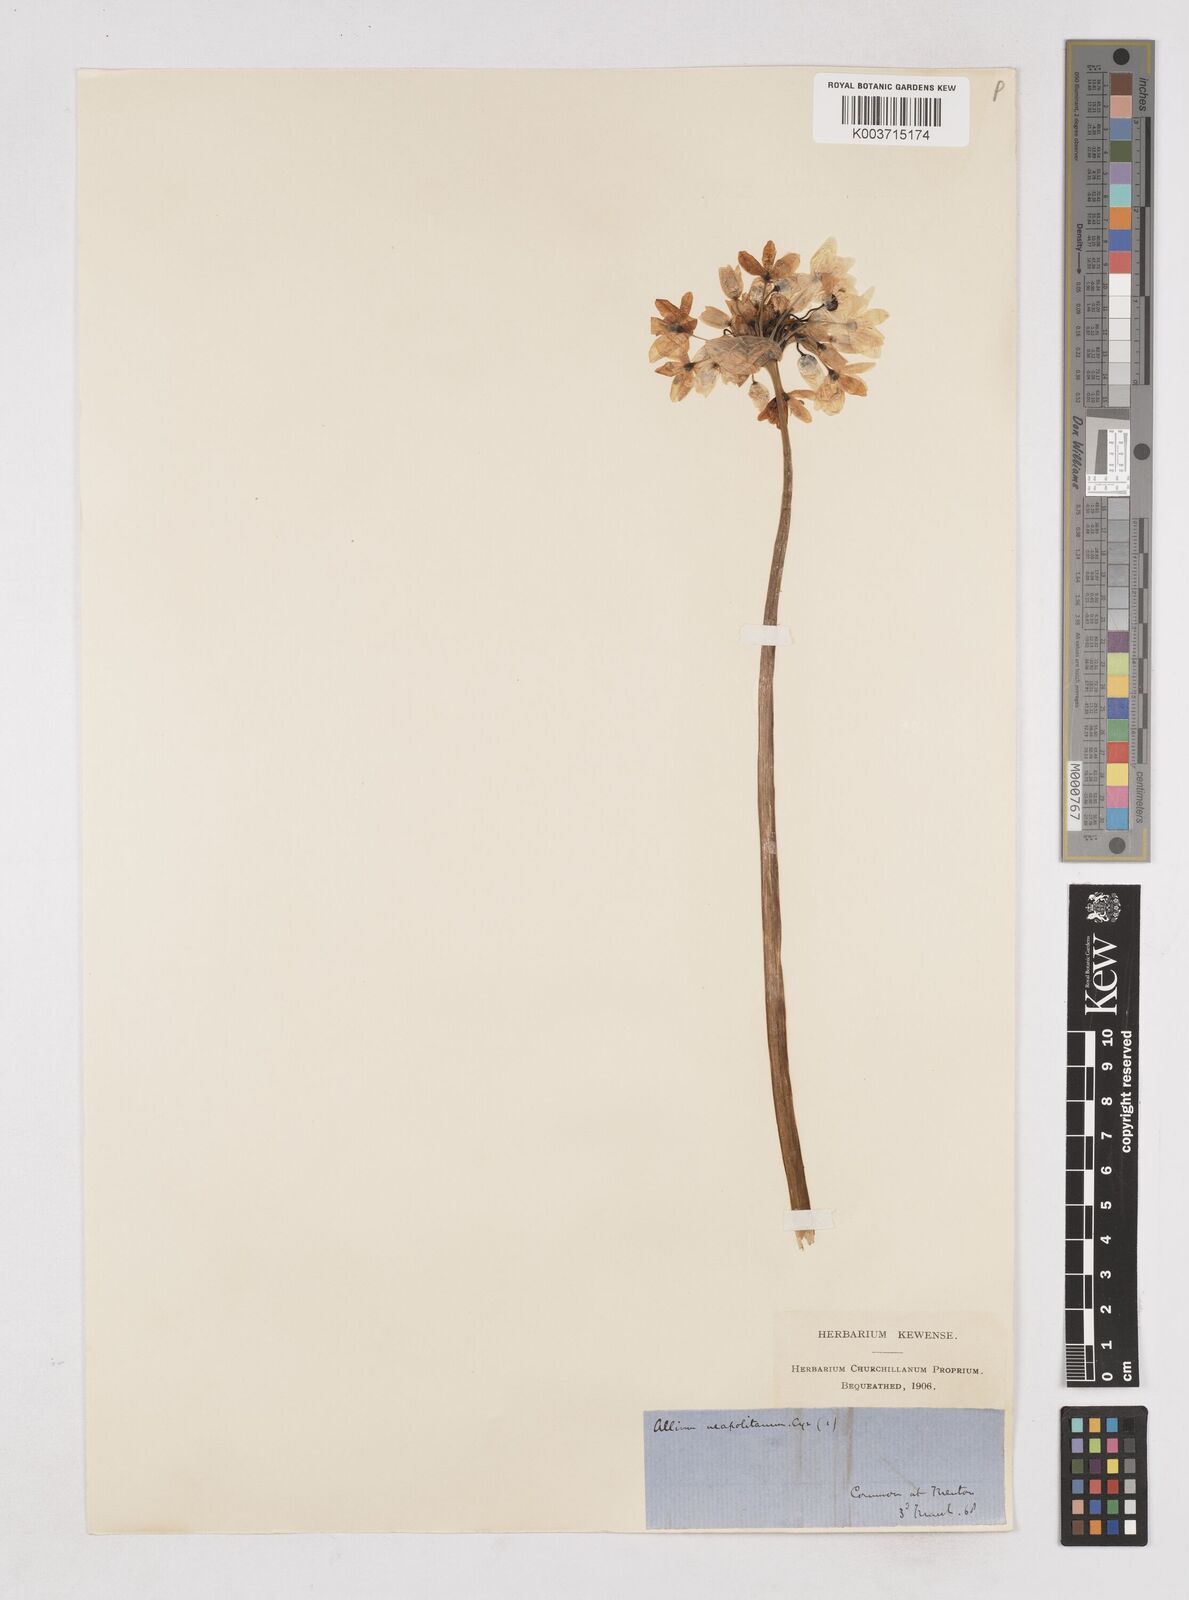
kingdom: Plantae
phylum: Tracheophyta
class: Liliopsida
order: Asparagales
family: Amaryllidaceae
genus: Allium
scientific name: Allium neapolitanum
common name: Neapolitan garlic
